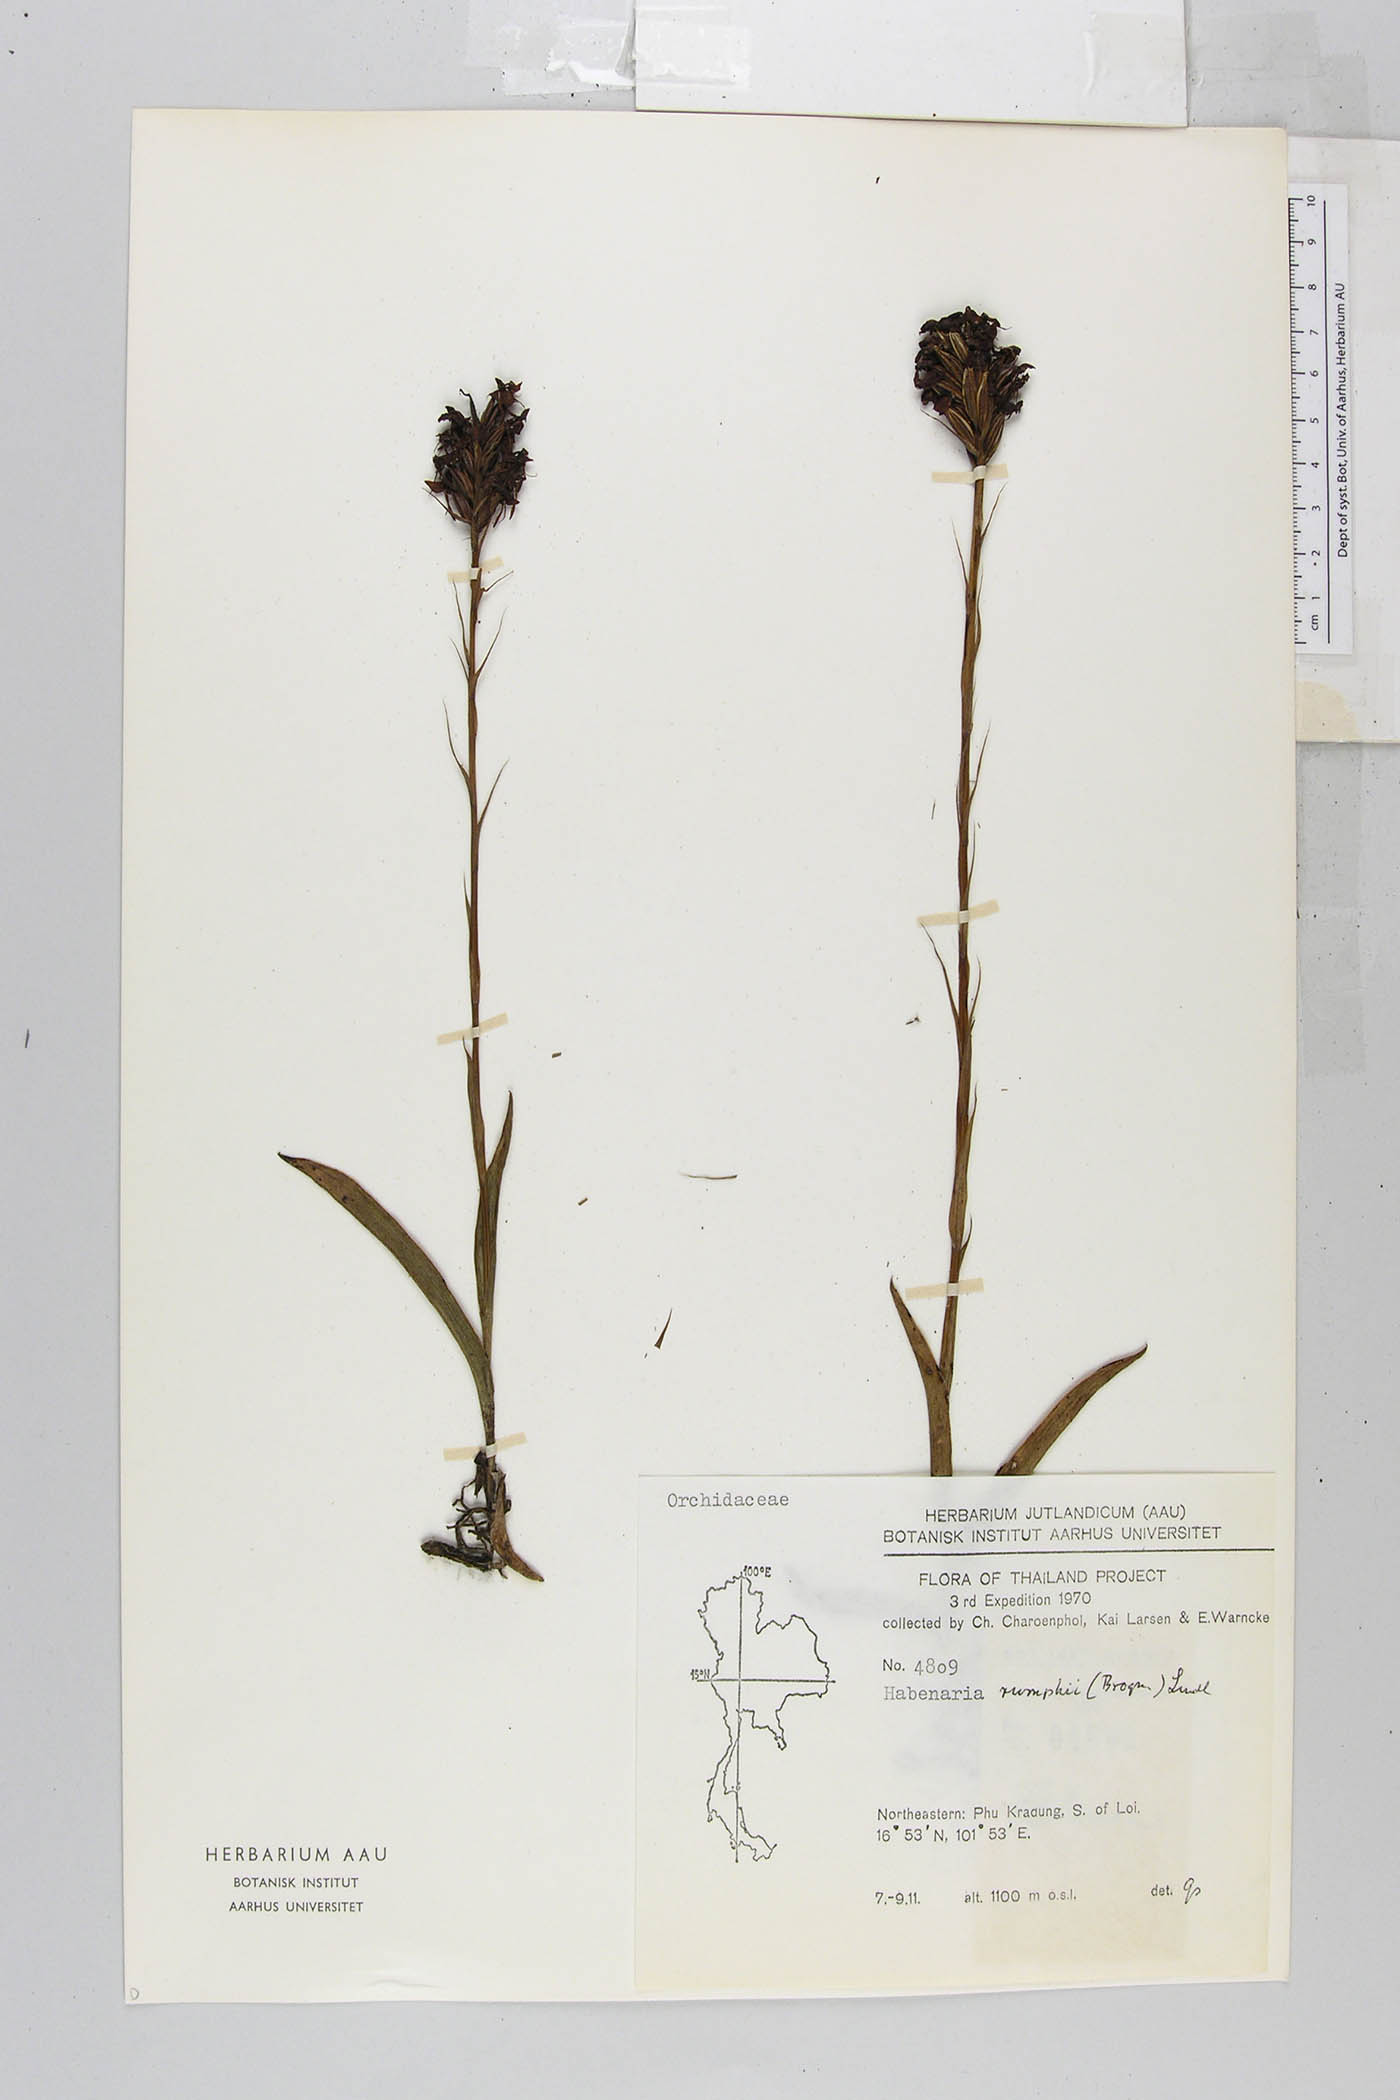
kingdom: Plantae
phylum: Tracheophyta
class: Liliopsida
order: Asparagales
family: Orchidaceae
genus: Habenaria
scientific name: Habenaria rumphii
